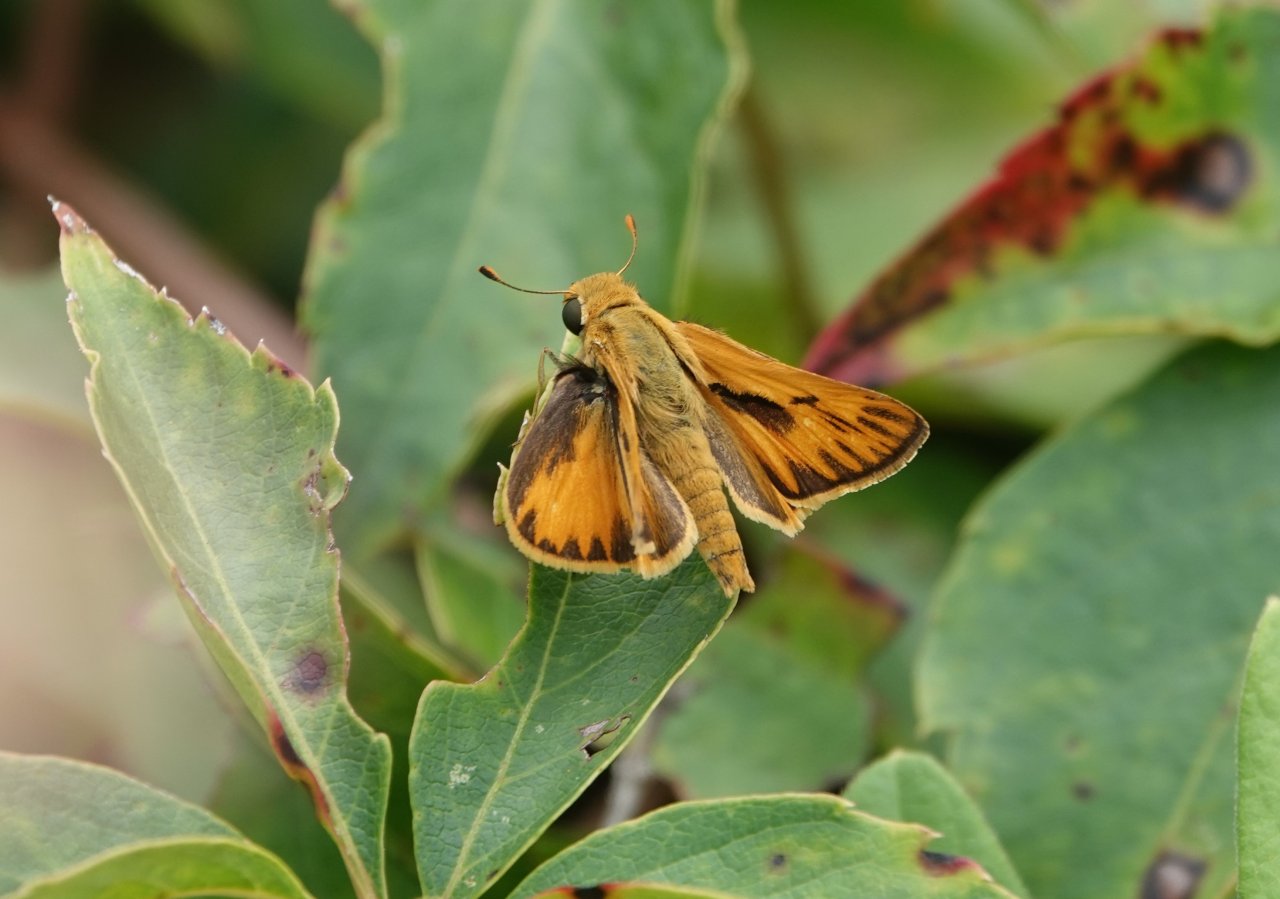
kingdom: Animalia
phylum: Arthropoda
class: Insecta
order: Lepidoptera
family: Hesperiidae
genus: Hylephila
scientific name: Hylephila phyleus
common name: Fiery Skipper
